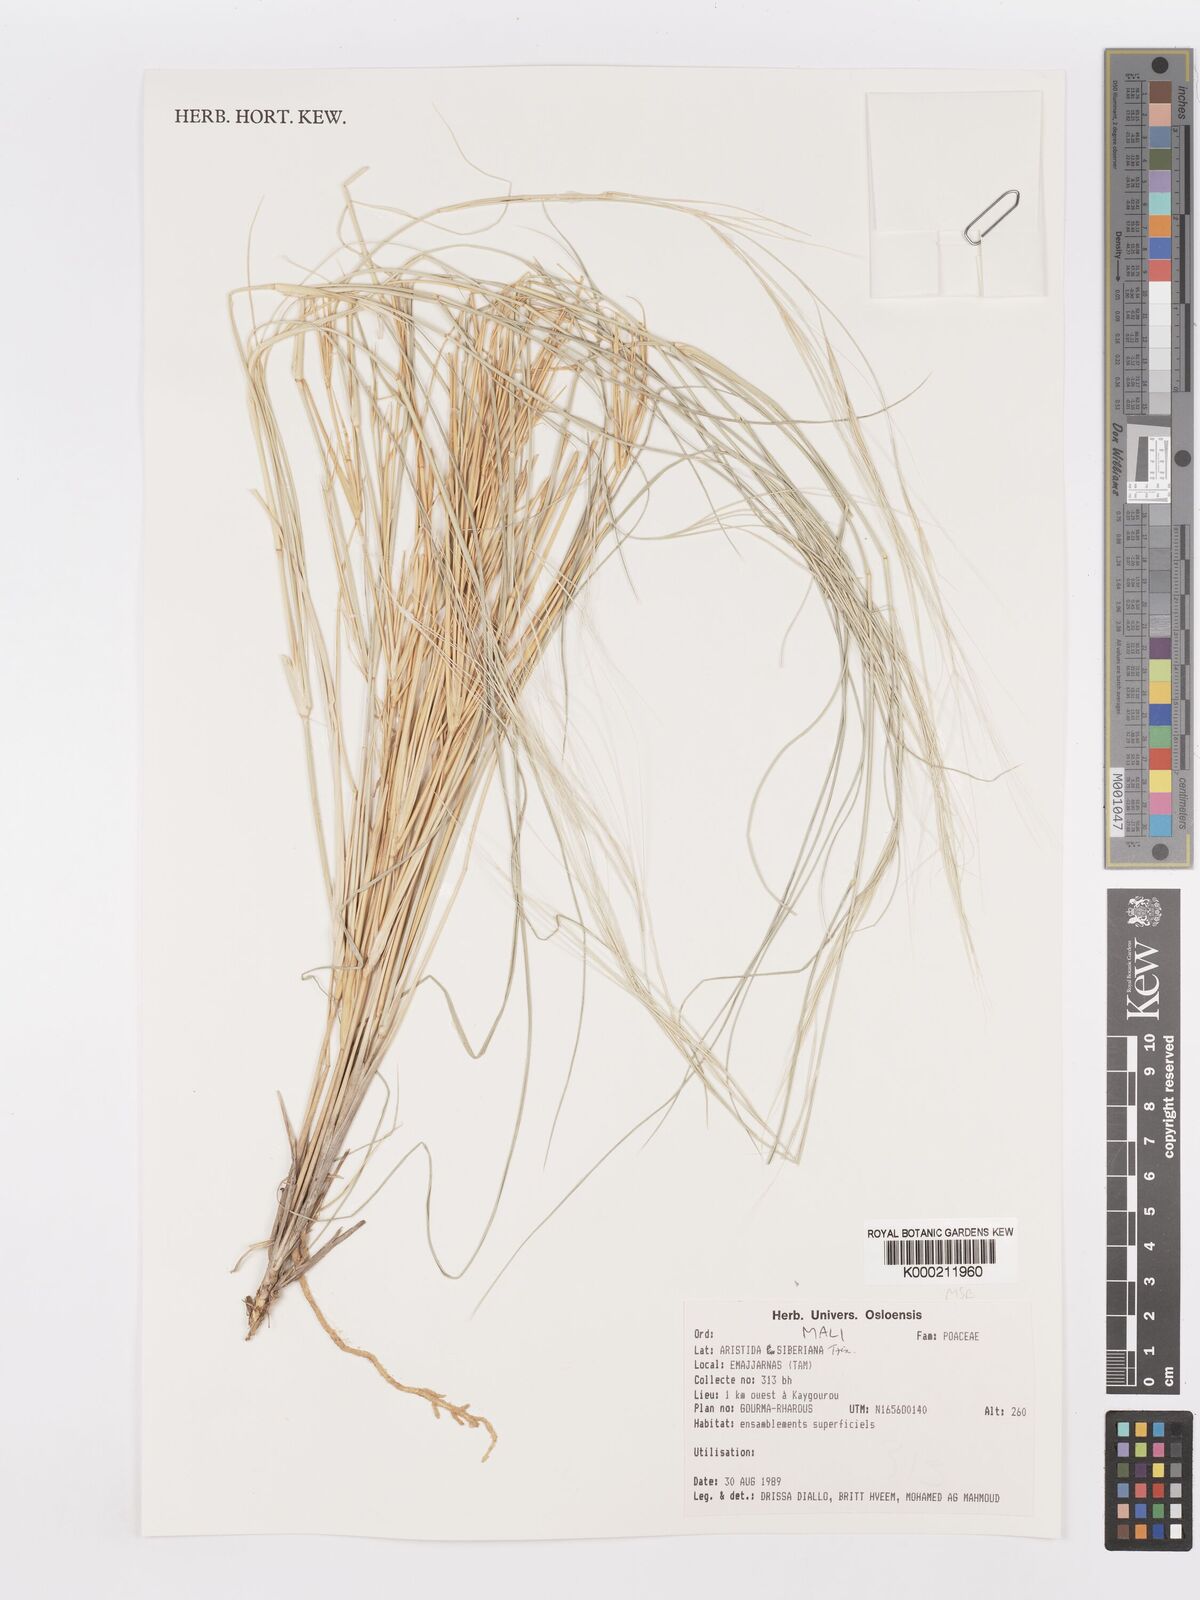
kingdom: Plantae
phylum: Tracheophyta
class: Liliopsida
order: Poales
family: Poaceae
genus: Aristida
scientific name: Aristida sieberiana
